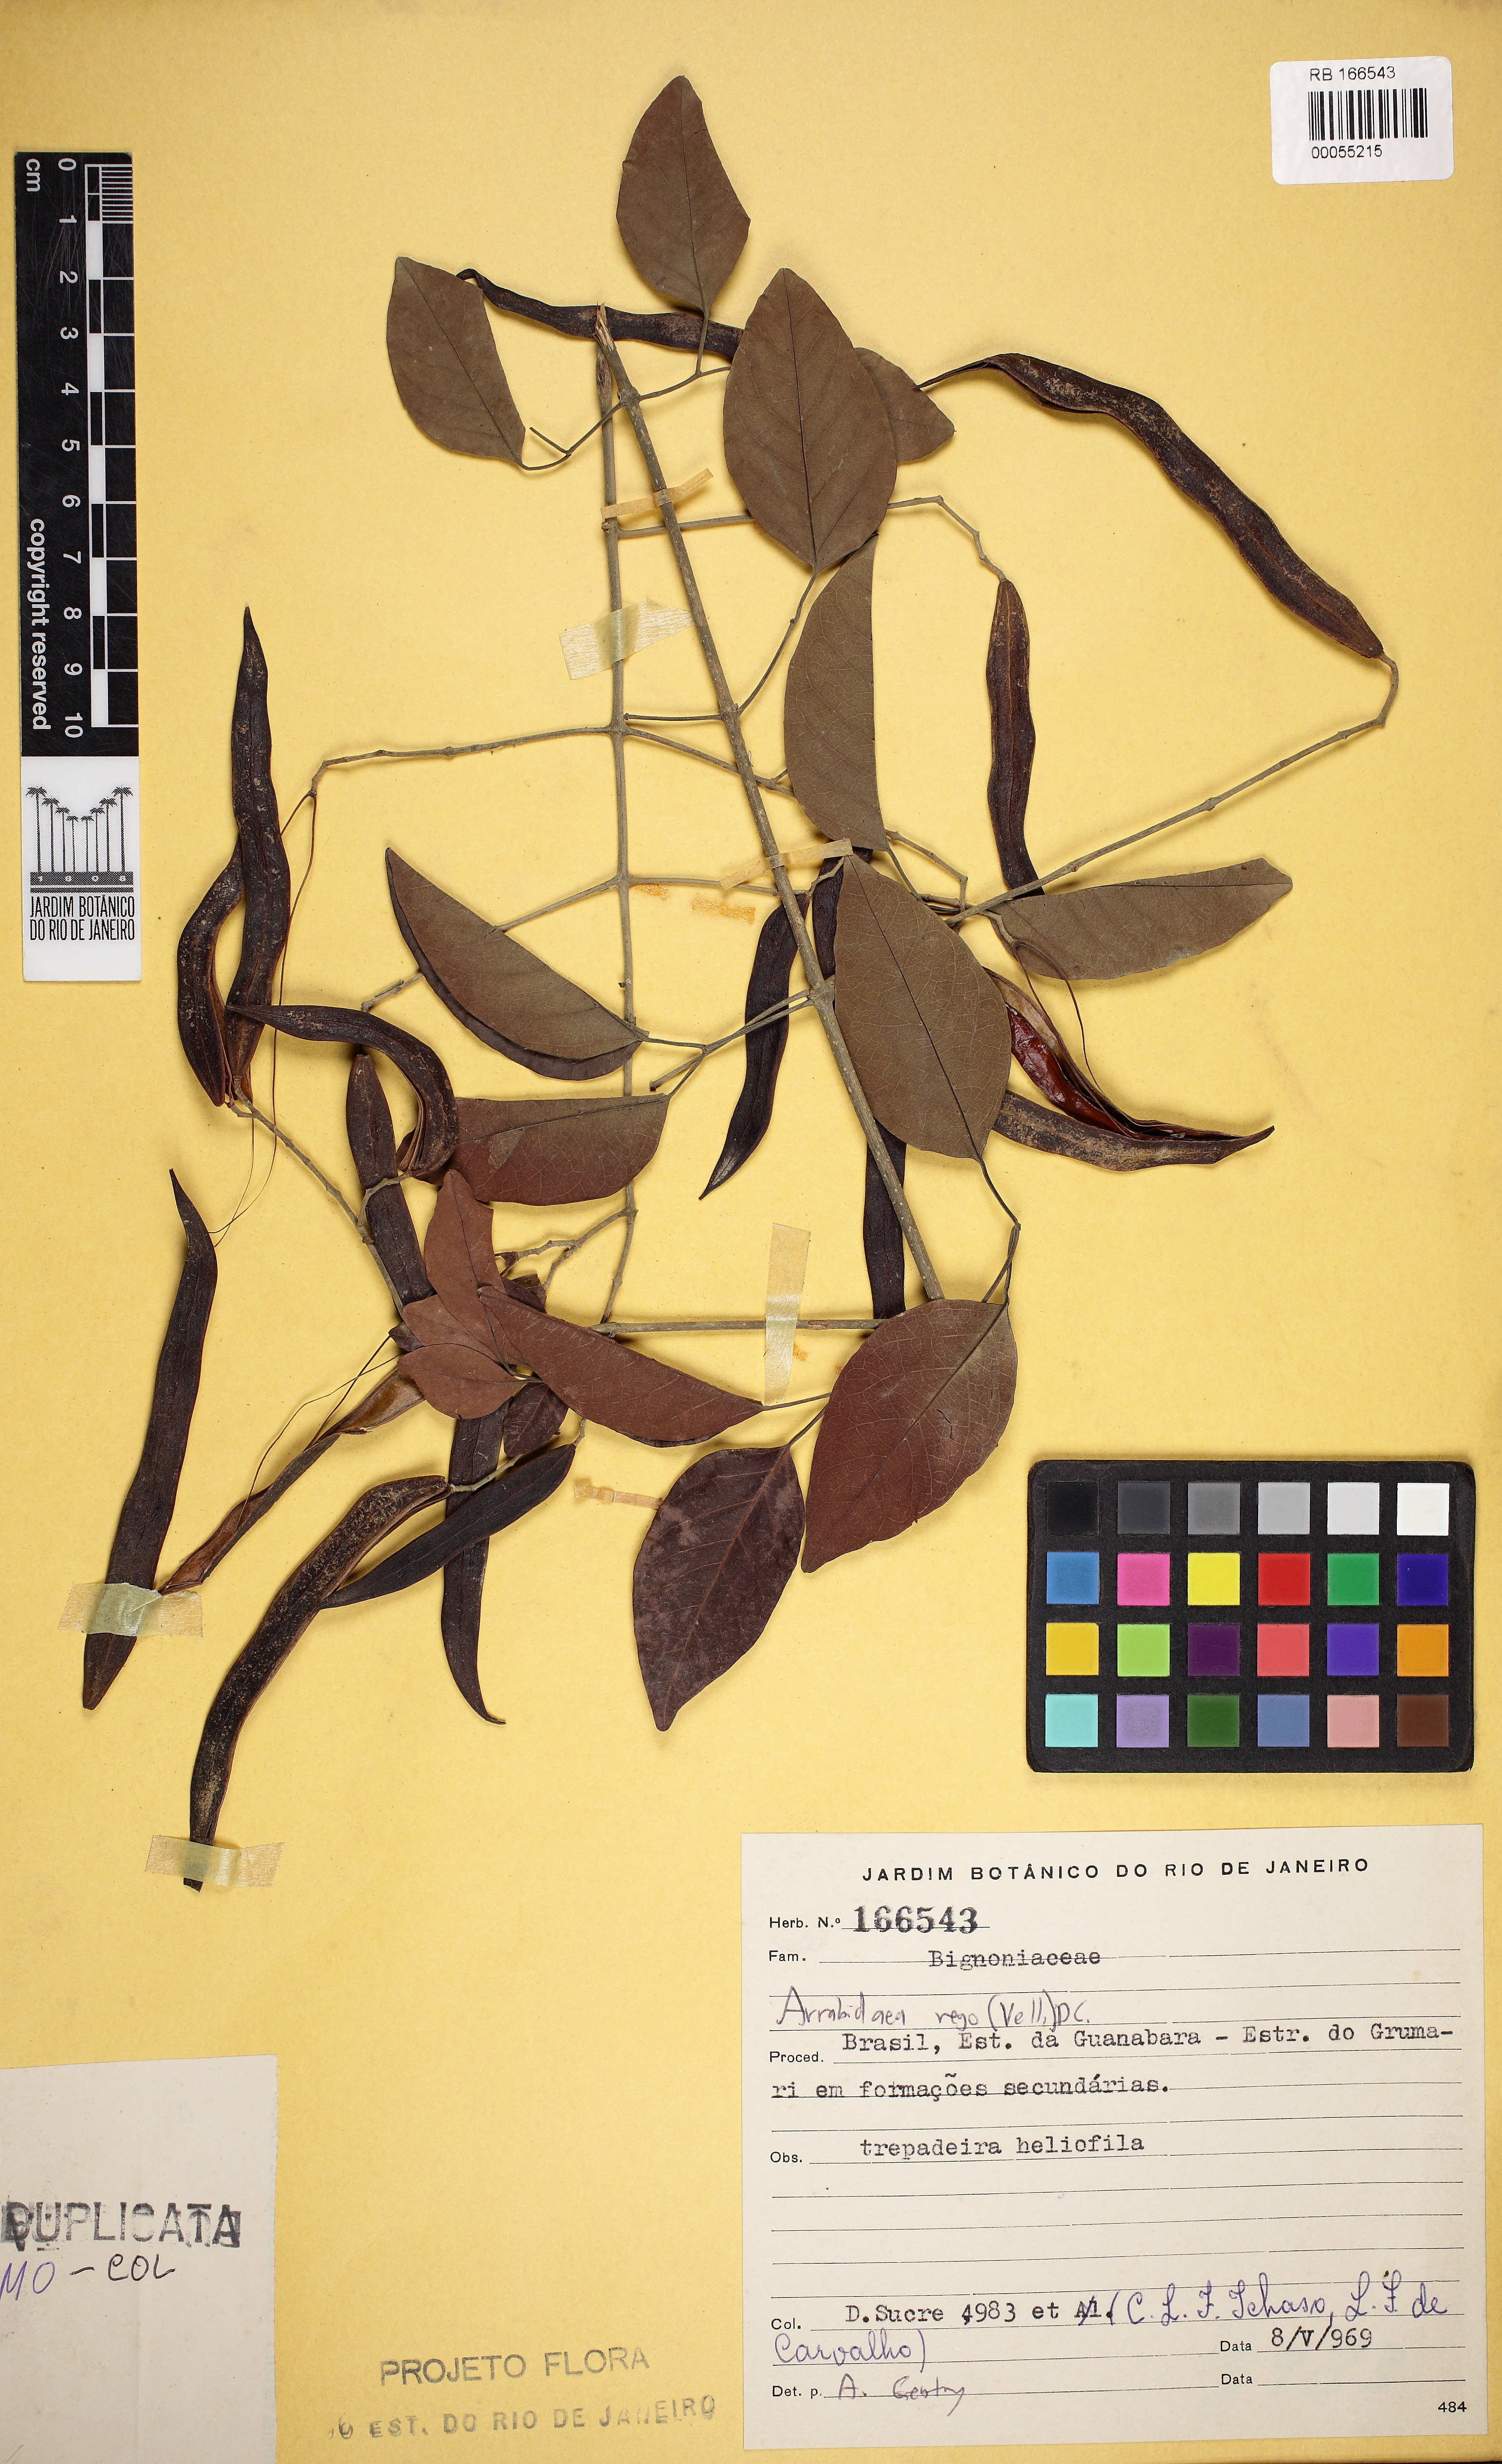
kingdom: Plantae
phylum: Tracheophyta
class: Magnoliopsida
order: Lamiales
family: Bignoniaceae
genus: Fridericia
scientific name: Fridericia rego
